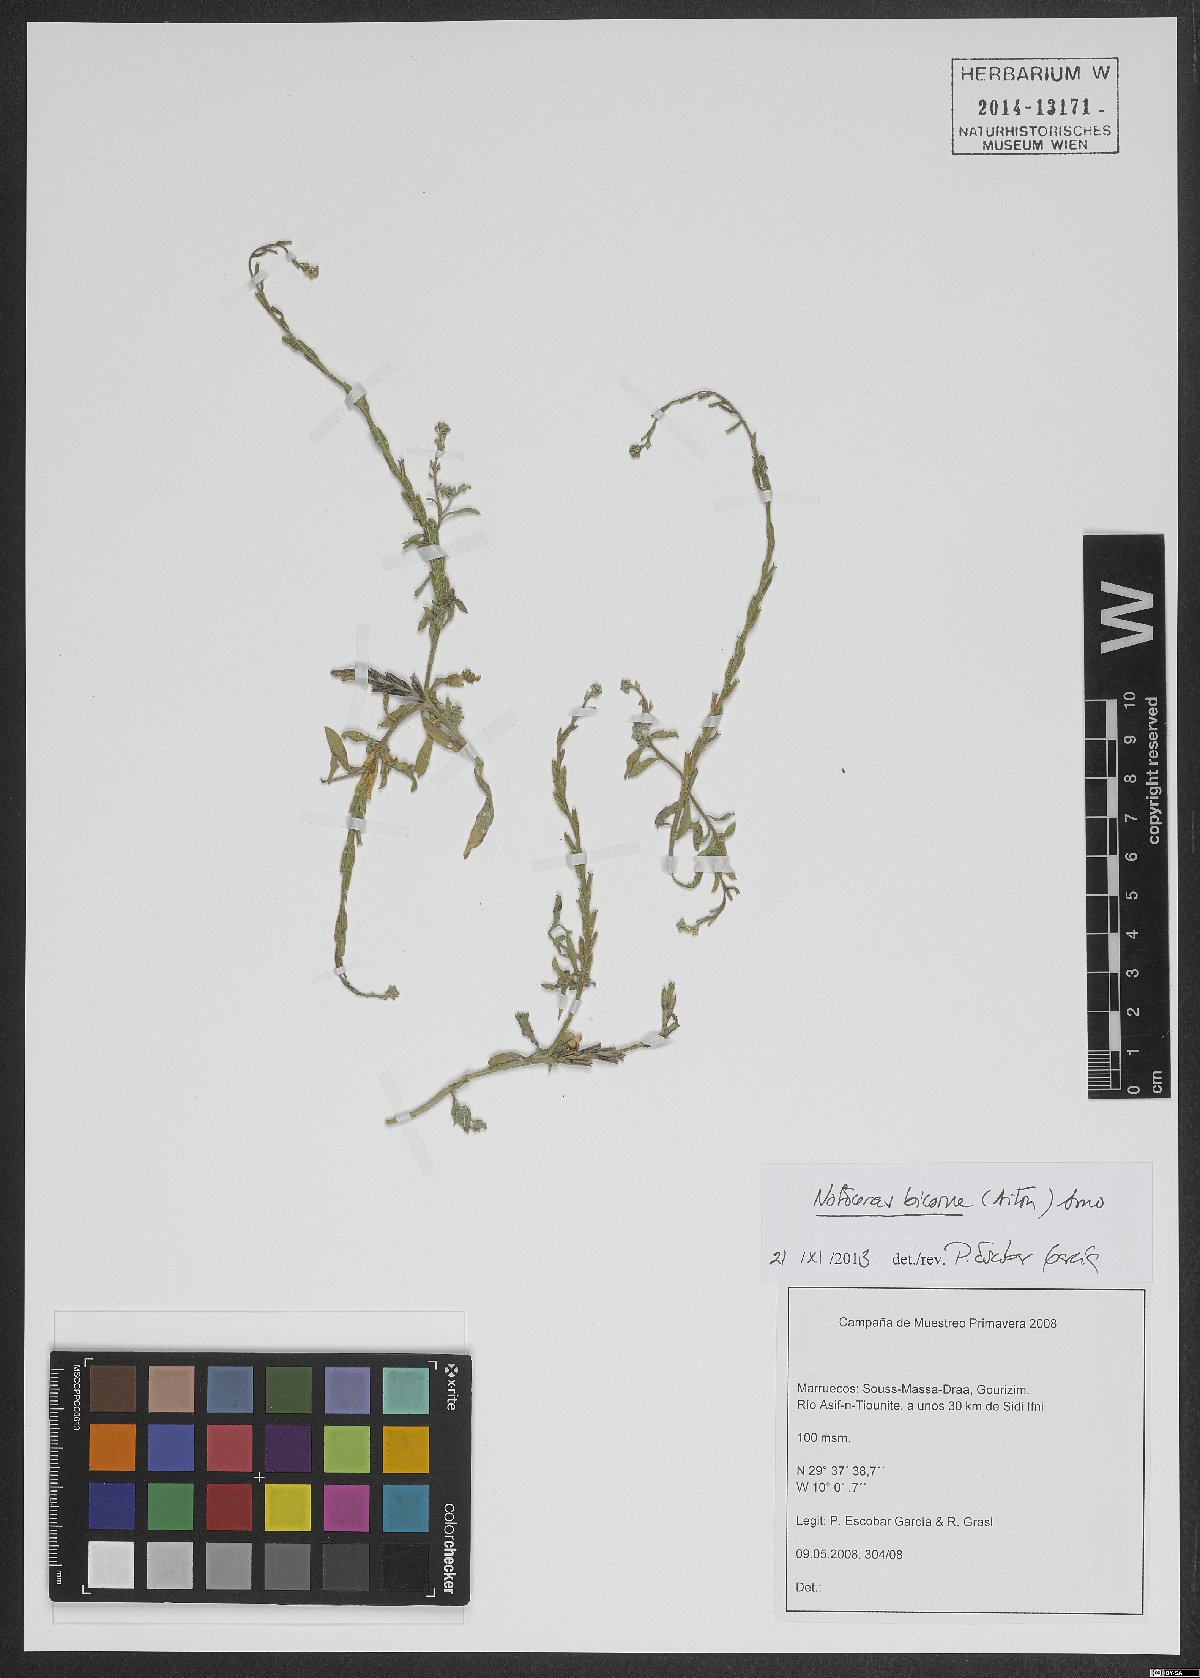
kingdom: Plantae
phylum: Tracheophyta
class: Magnoliopsida
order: Brassicales
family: Brassicaceae
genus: Notoceras
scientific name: Notoceras bicorne
